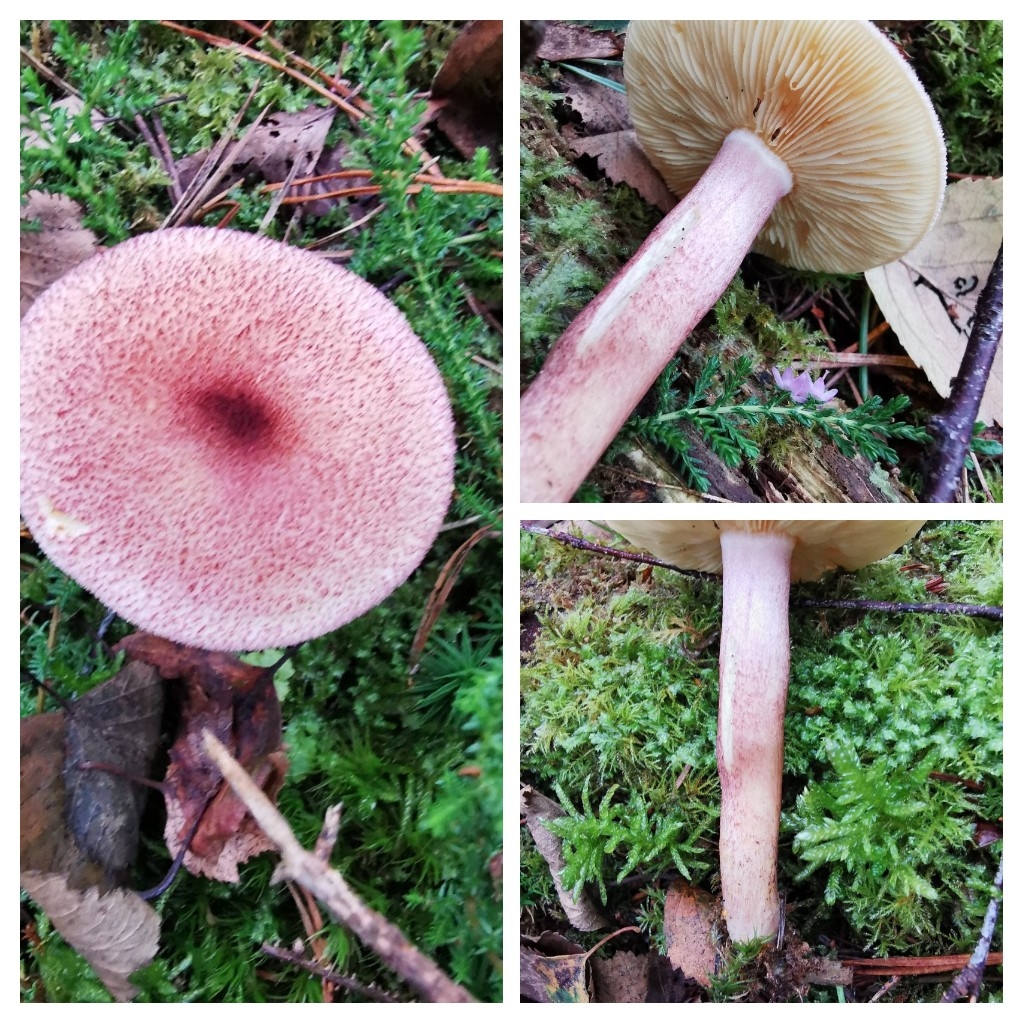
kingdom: Fungi
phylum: Basidiomycota
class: Agaricomycetes
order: Agaricales
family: Tricholomataceae
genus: Tricholomopsis
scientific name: Tricholomopsis rutilans
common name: purpur-væbnerhat
